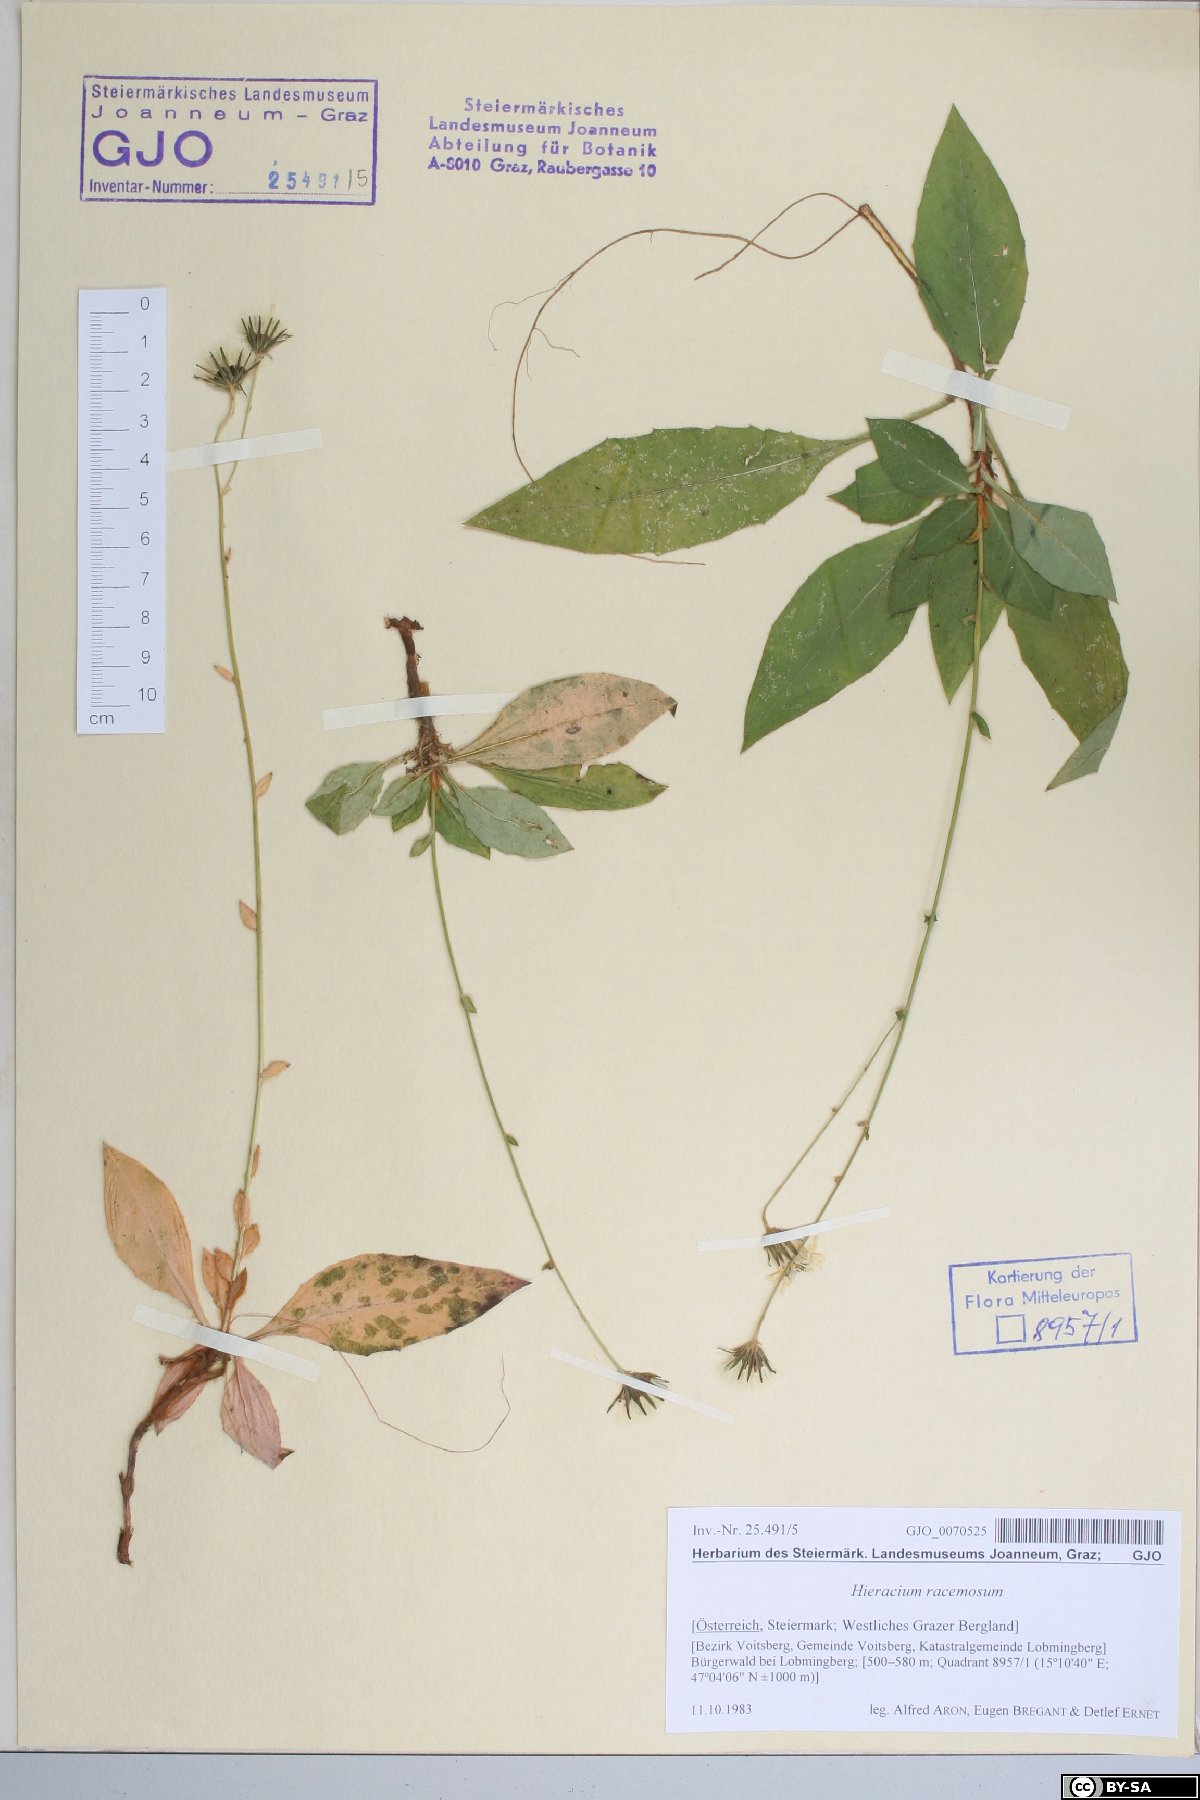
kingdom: Plantae
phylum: Tracheophyta
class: Magnoliopsida
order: Asterales
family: Asteraceae
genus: Hieracium
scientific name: Hieracium racemosum
